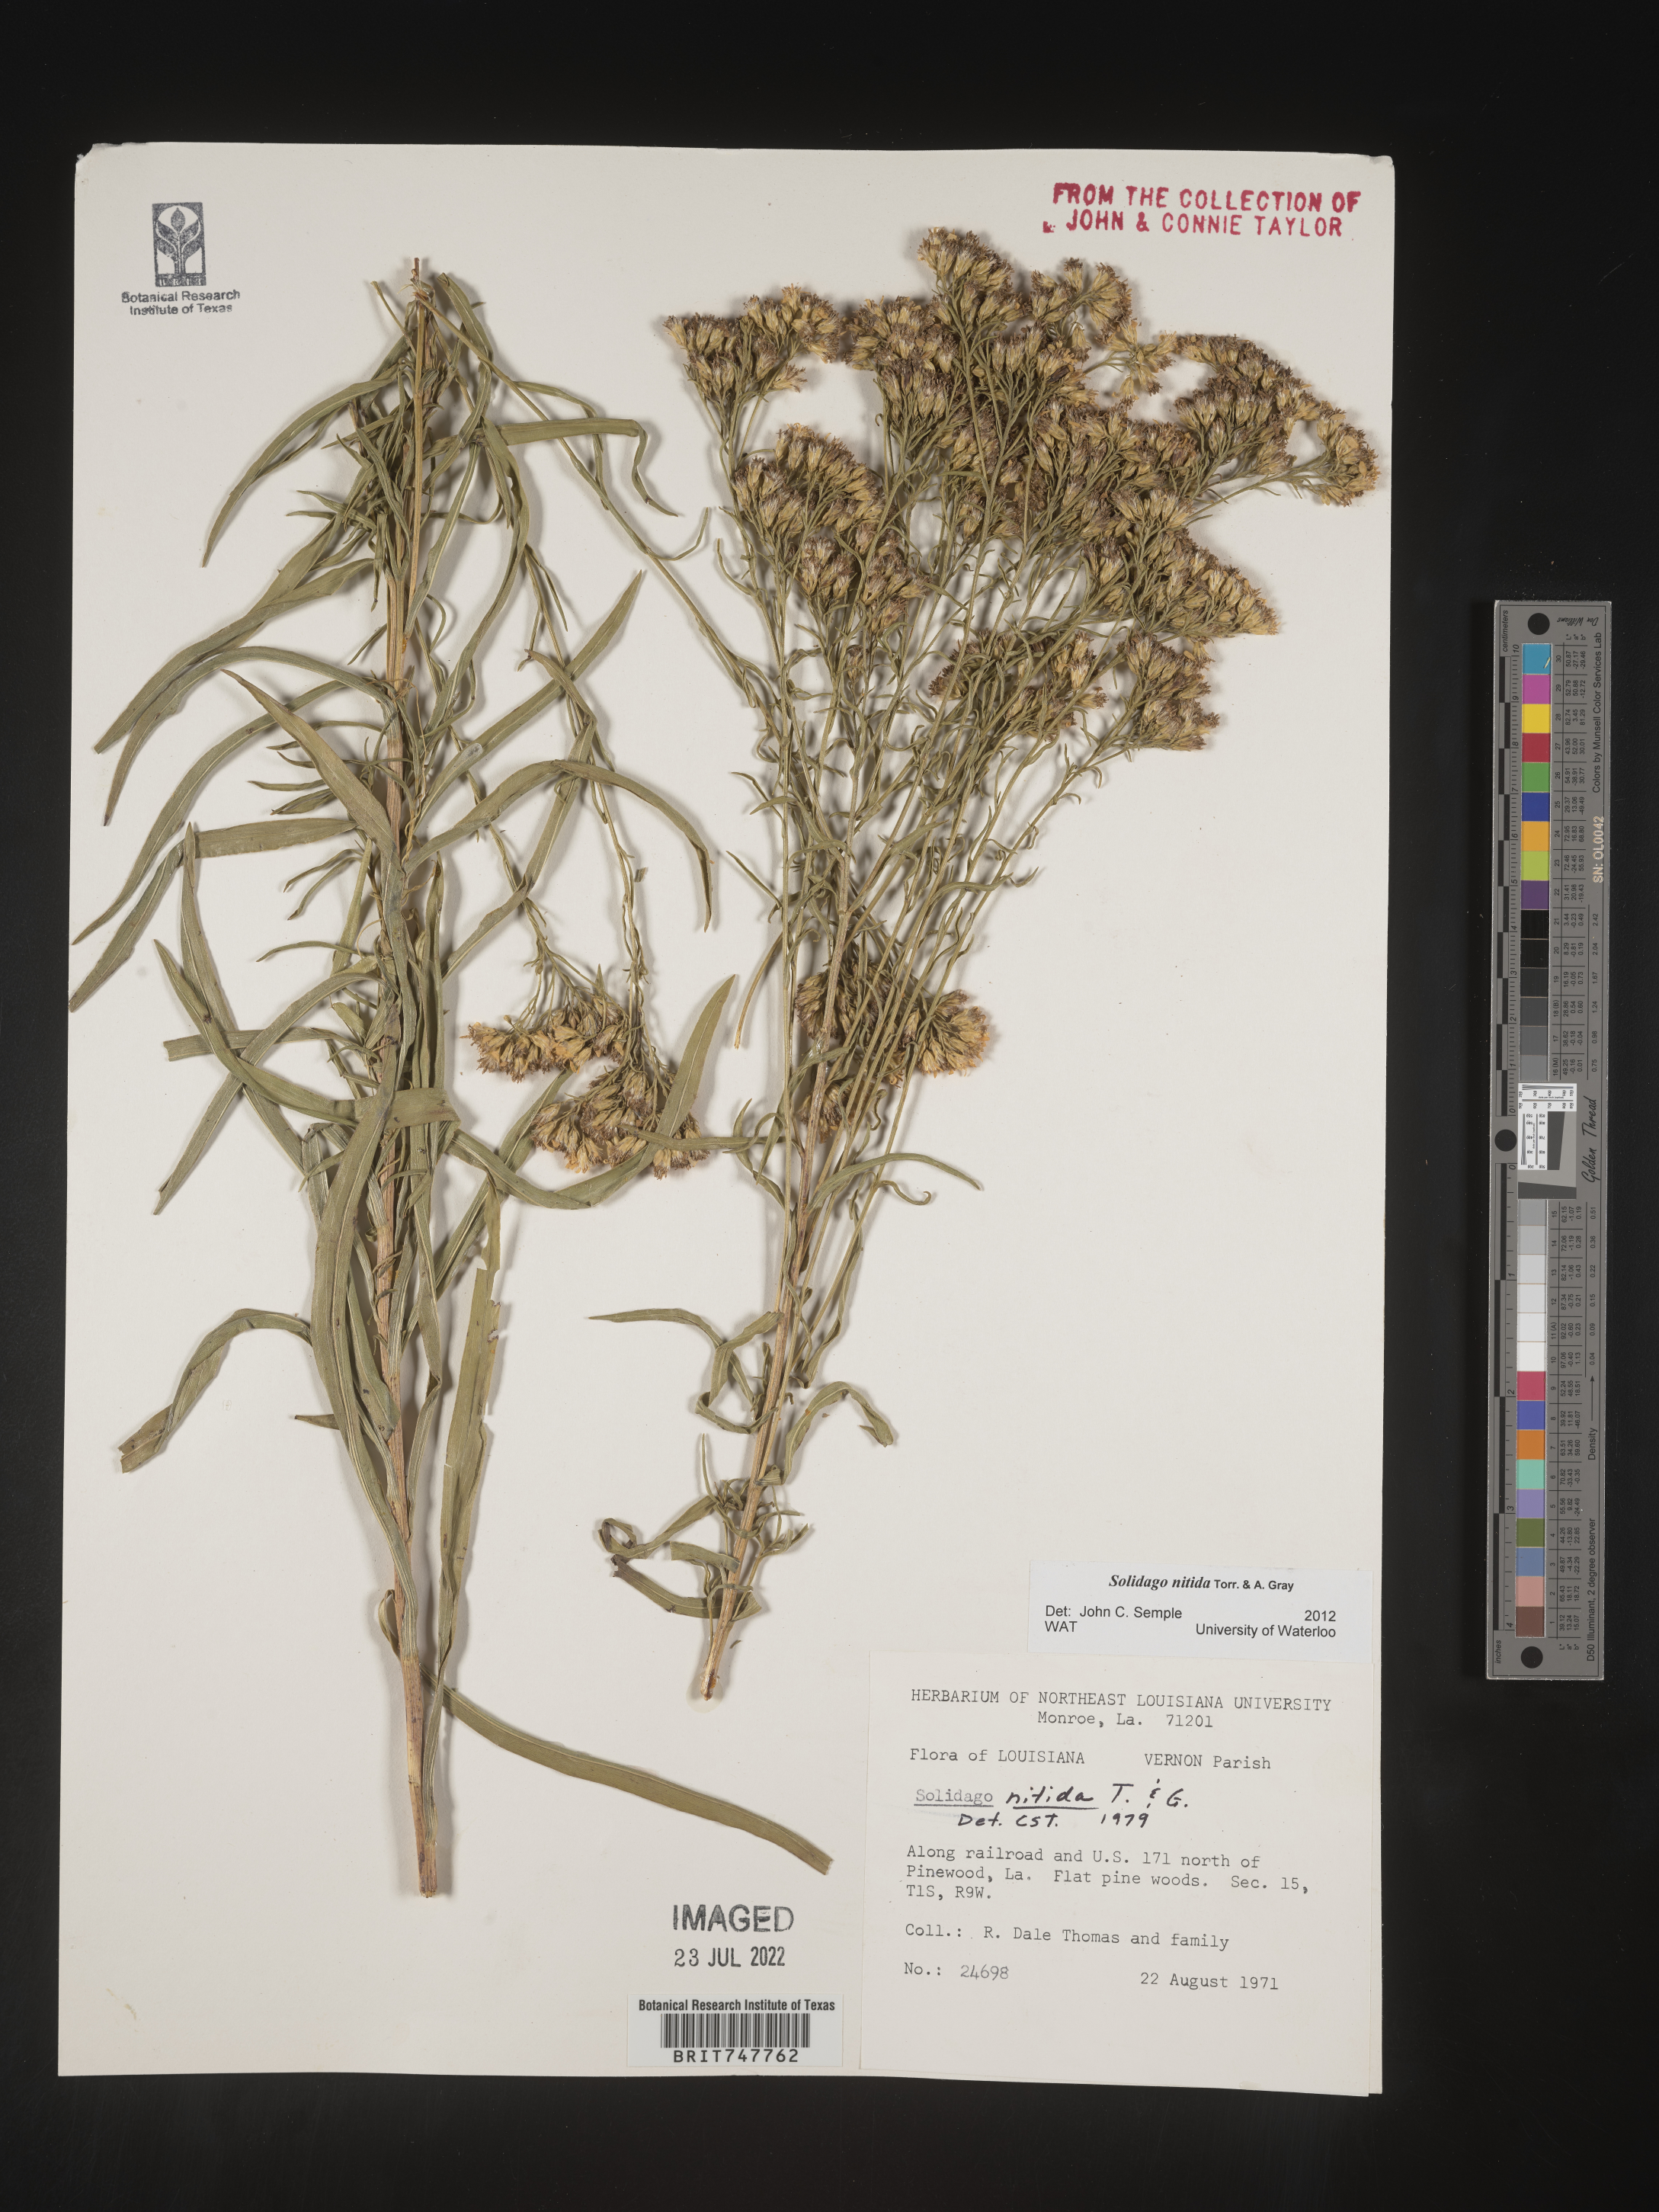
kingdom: Plantae
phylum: Tracheophyta
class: Magnoliopsida
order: Asterales
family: Asteraceae
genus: Solidago
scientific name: Solidago nitida
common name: Shiny goldenrod
